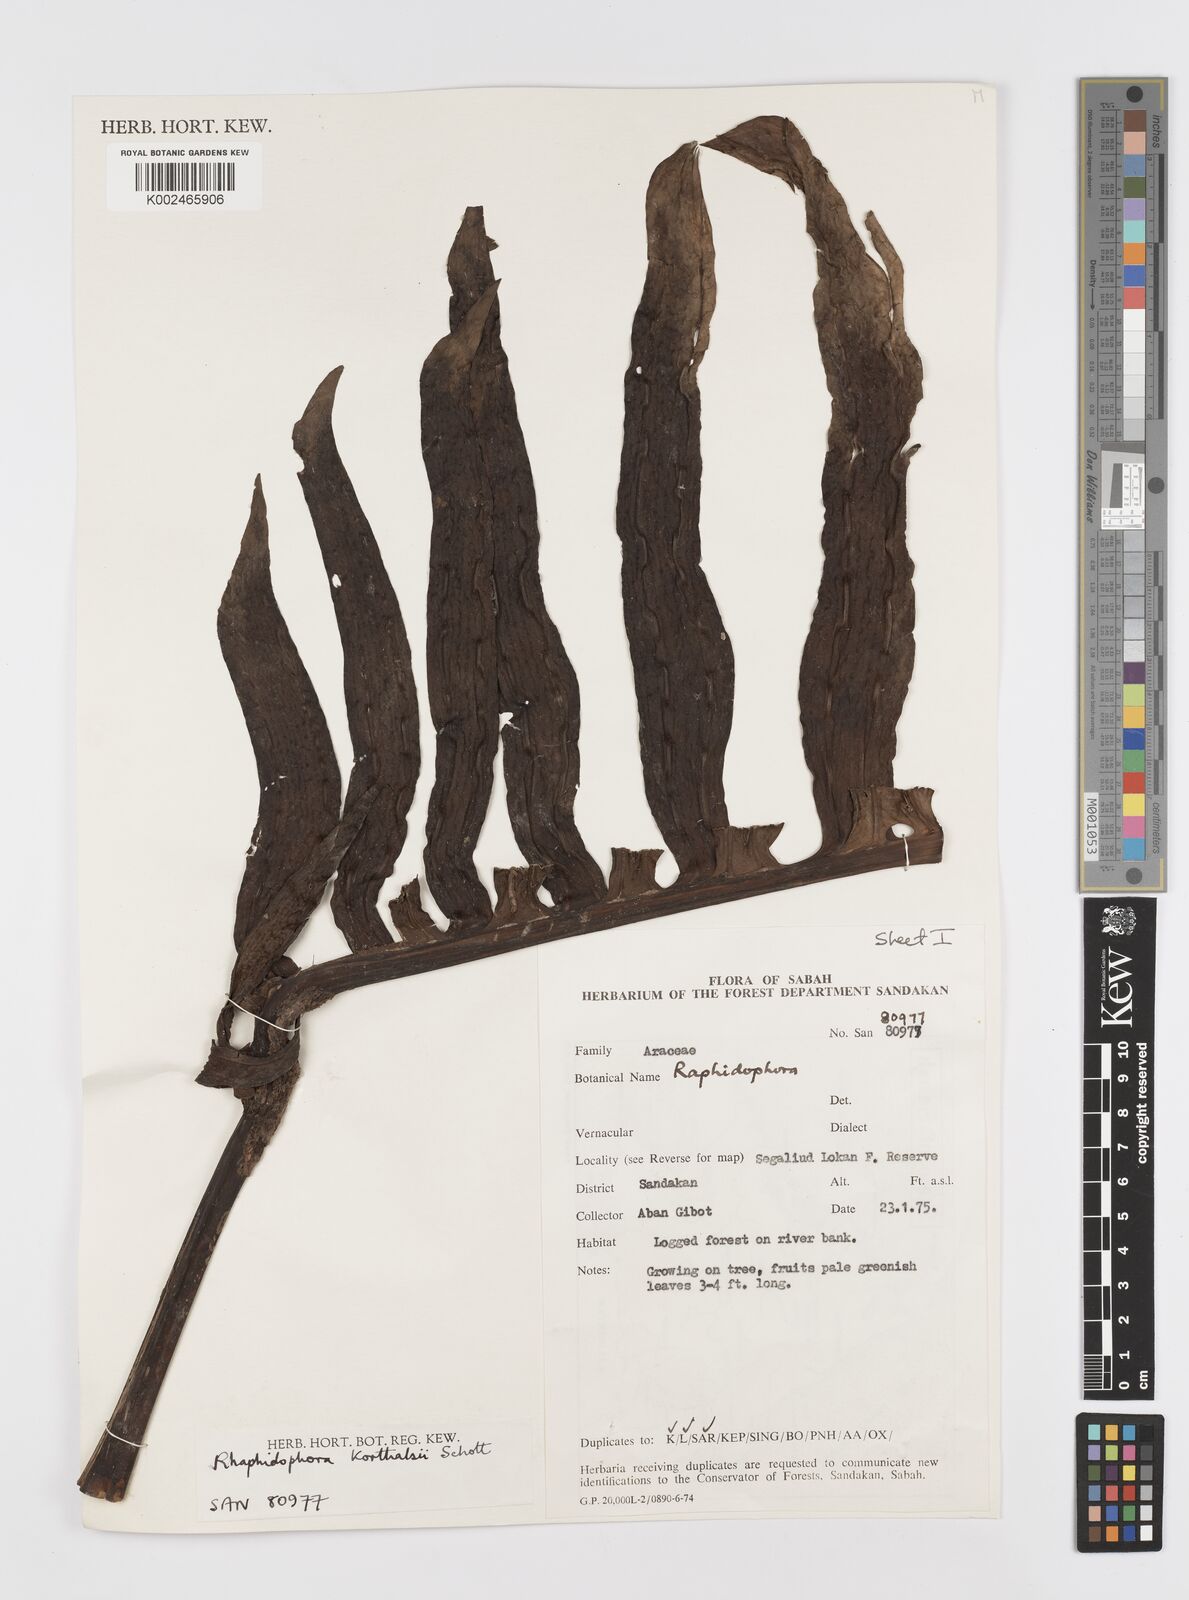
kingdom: Plantae
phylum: Tracheophyta
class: Liliopsida
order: Alismatales
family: Araceae
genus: Rhaphidophora
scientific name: Rhaphidophora korthalsii
